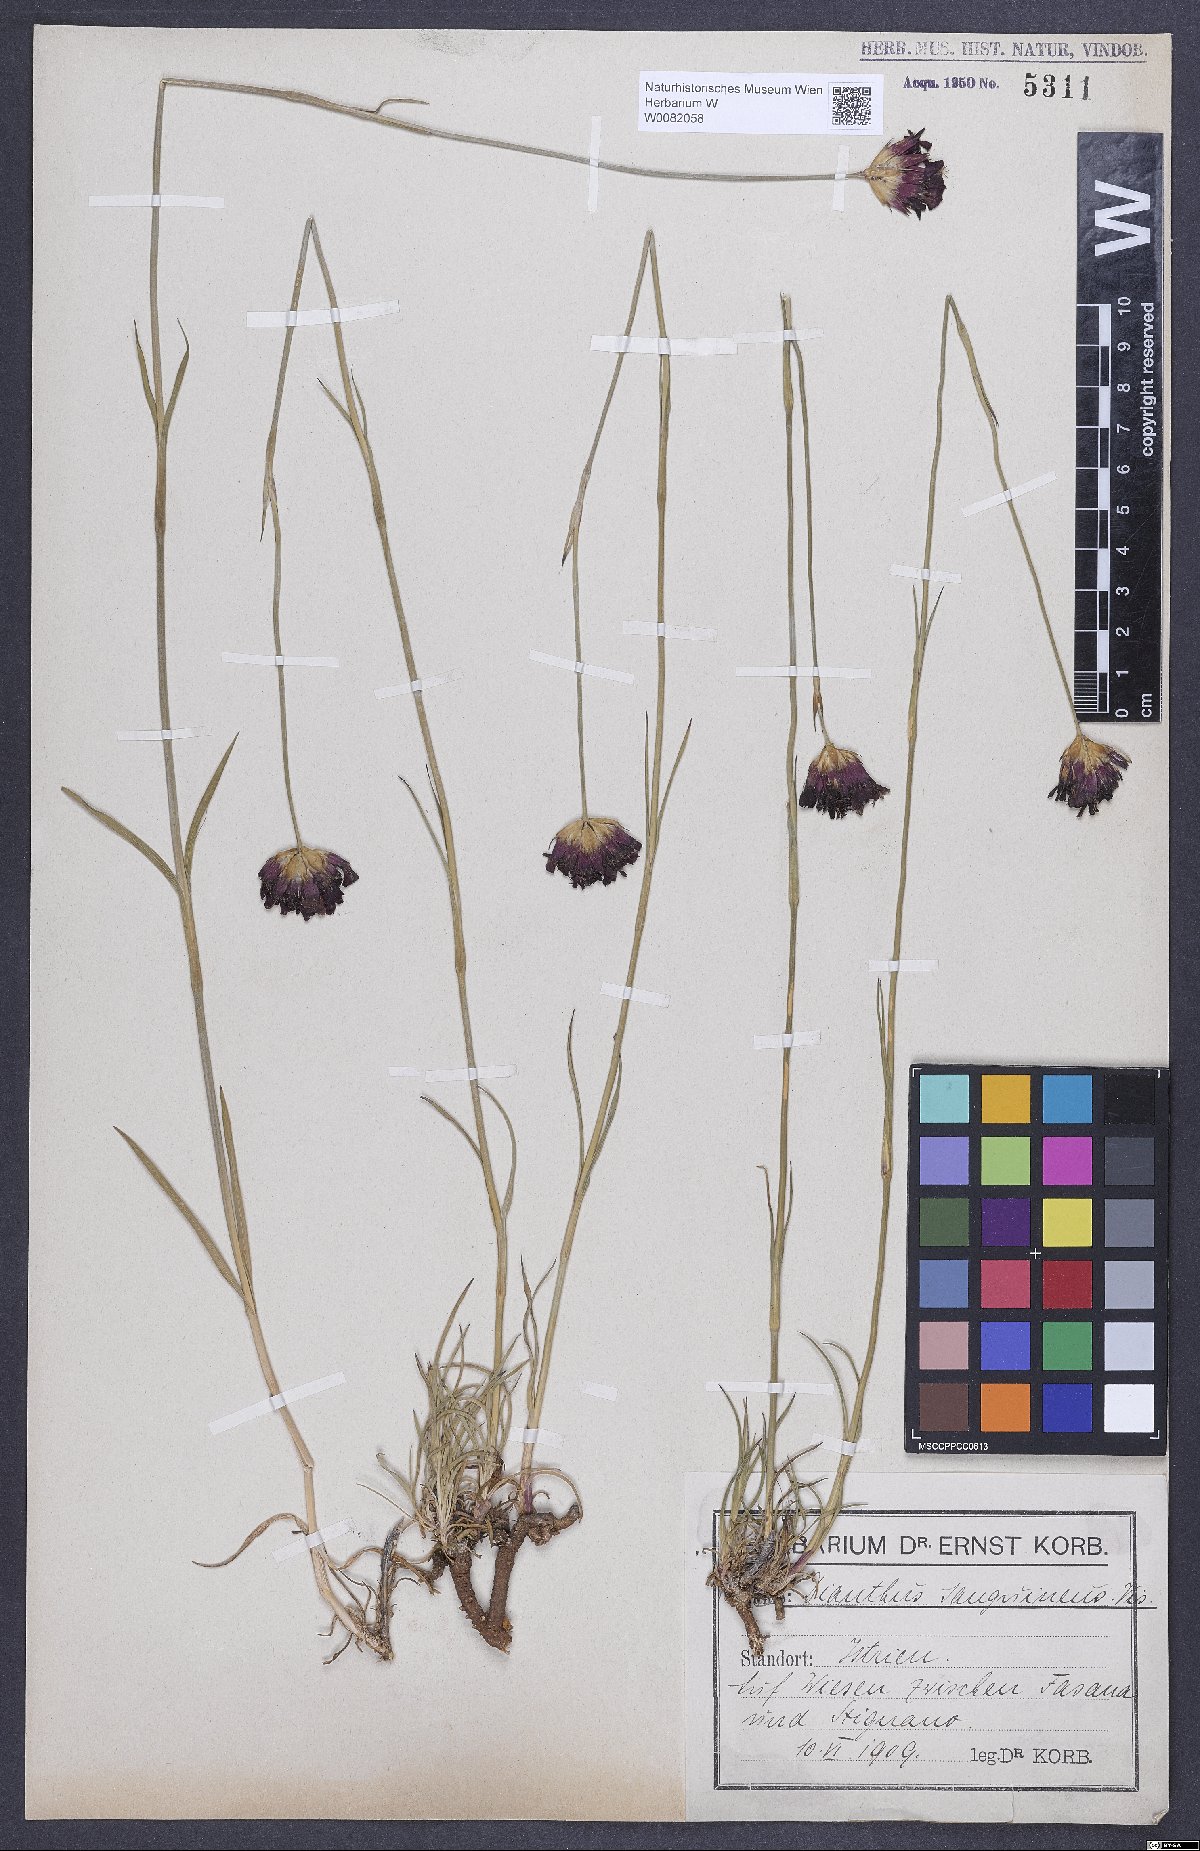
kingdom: Plantae
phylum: Tracheophyta
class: Magnoliopsida
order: Caryophyllales
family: Caryophyllaceae
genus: Dianthus
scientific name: Dianthus carthusianorum
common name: Carthusian pink
